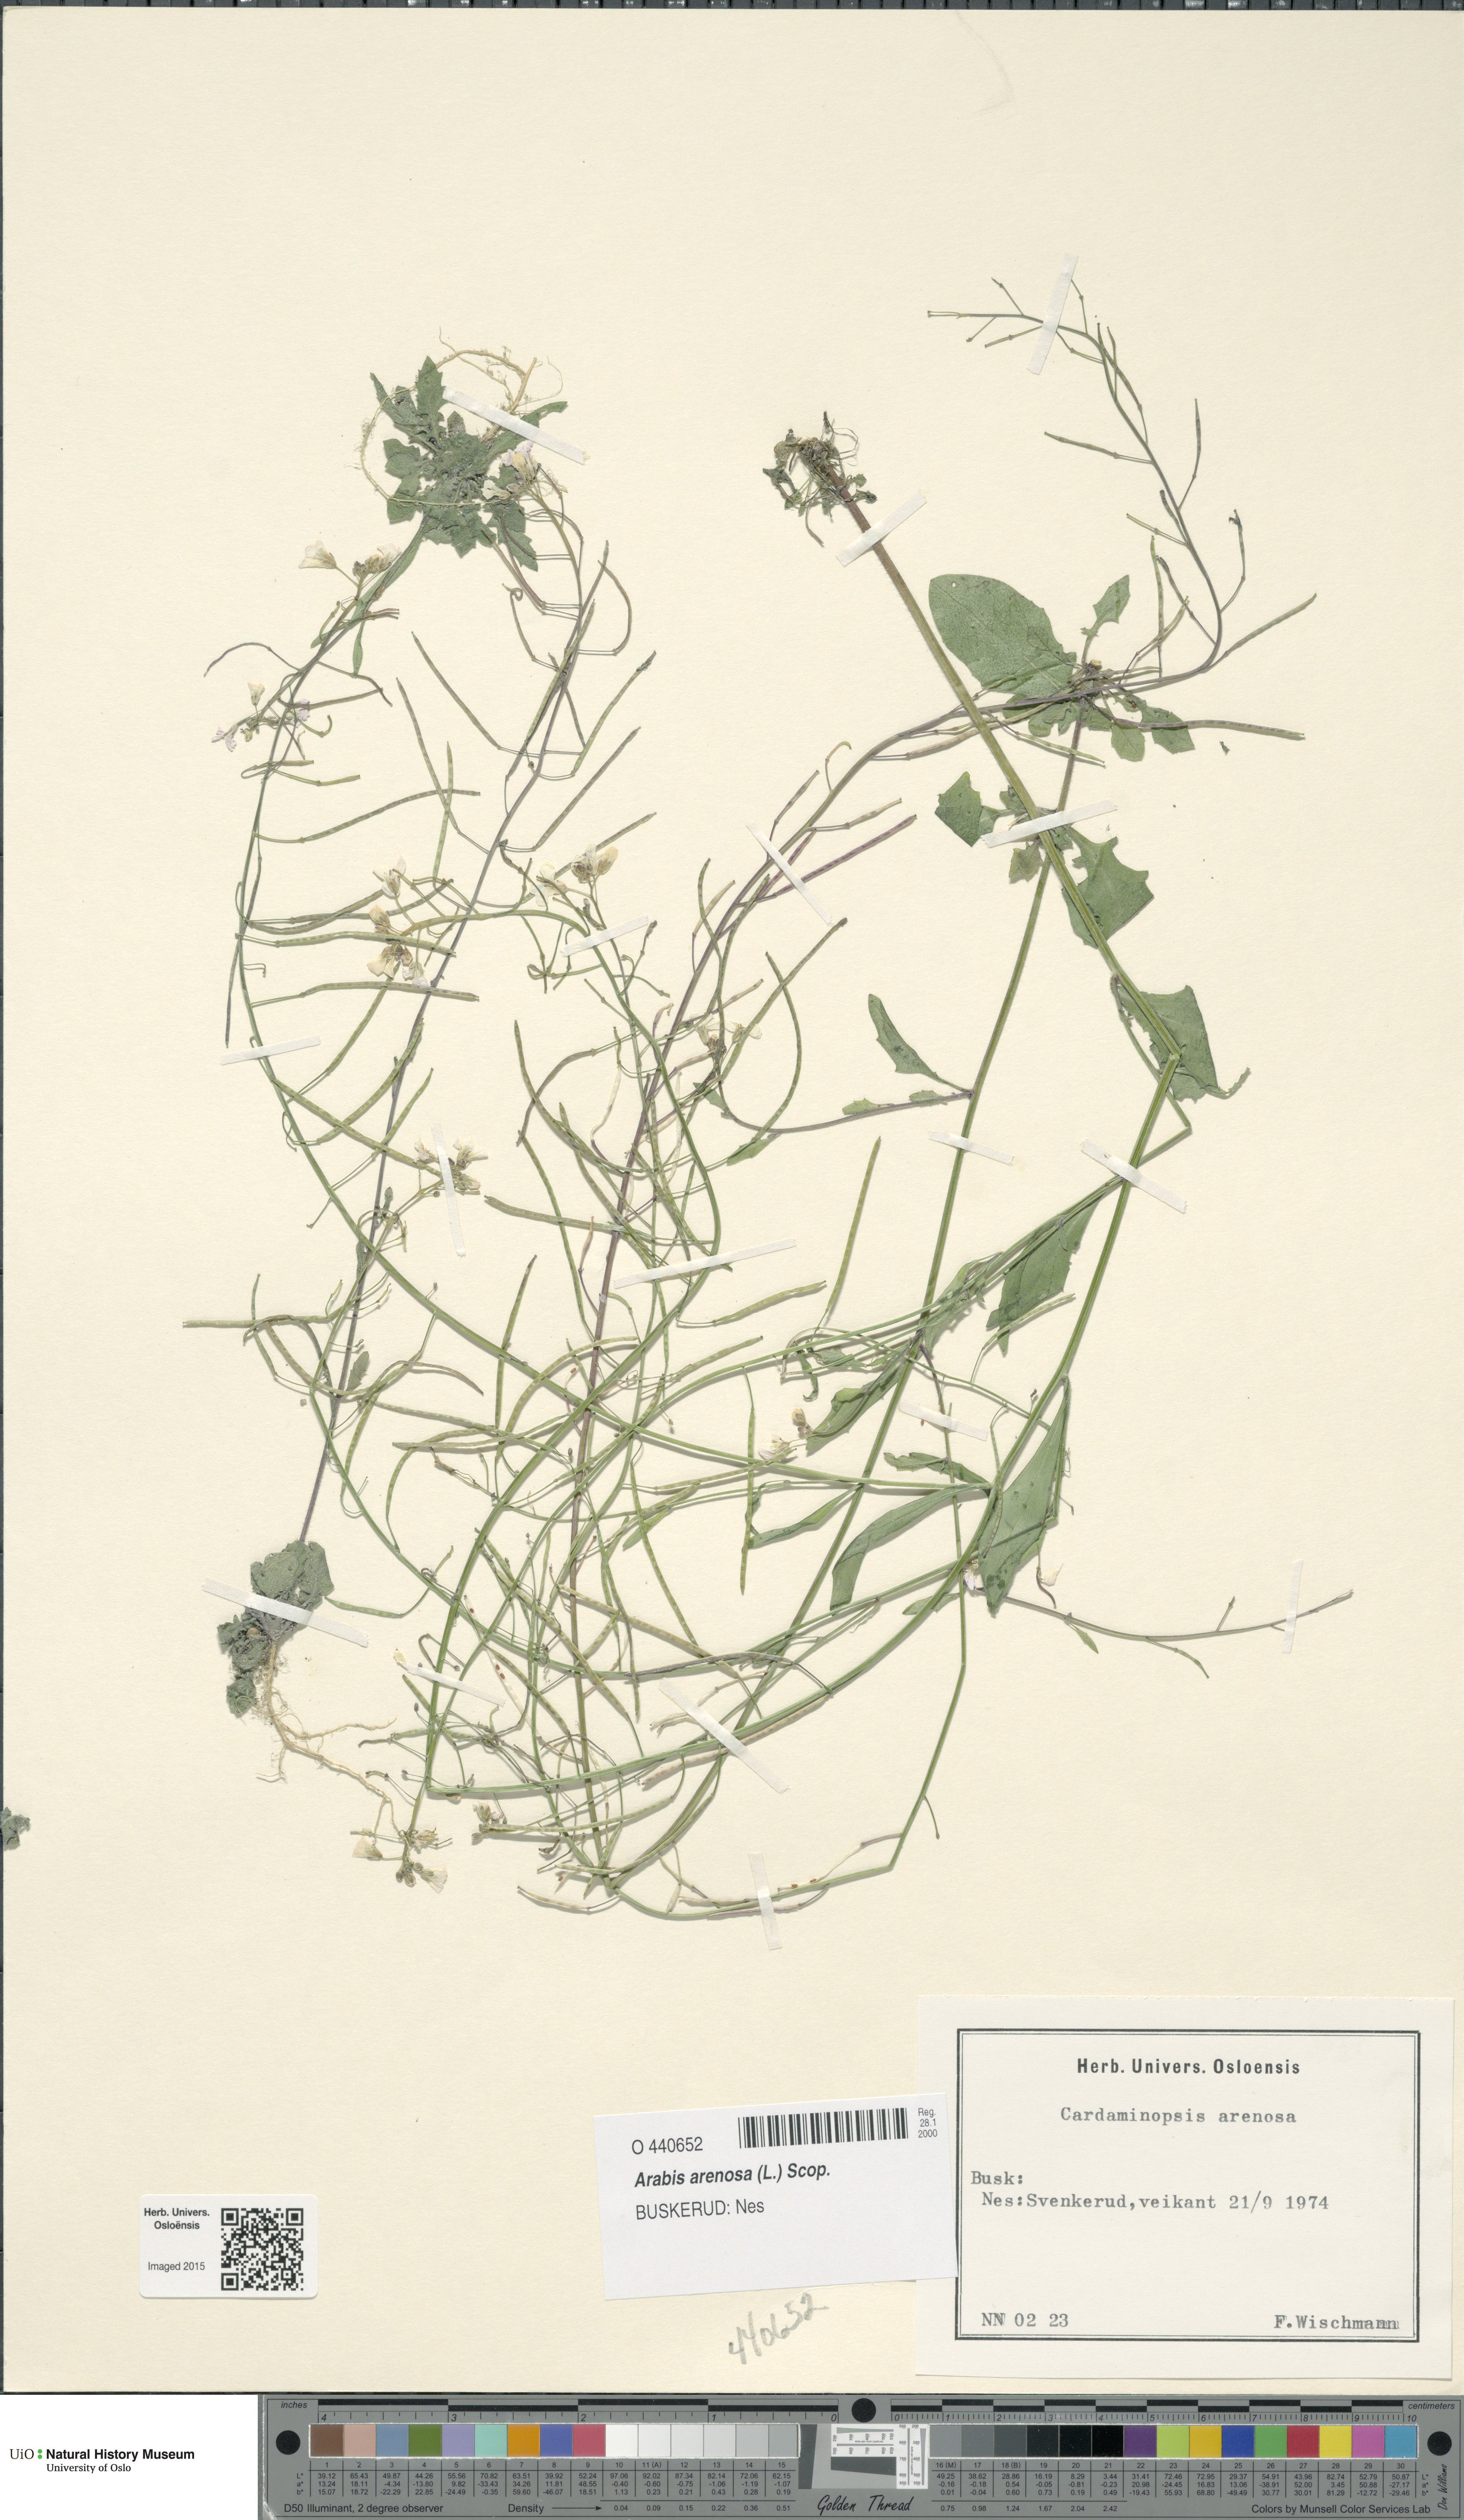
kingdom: Plantae
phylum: Tracheophyta
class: Magnoliopsida
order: Brassicales
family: Brassicaceae
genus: Arabidopsis
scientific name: Arabidopsis arenosa
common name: Sand rock-cress
